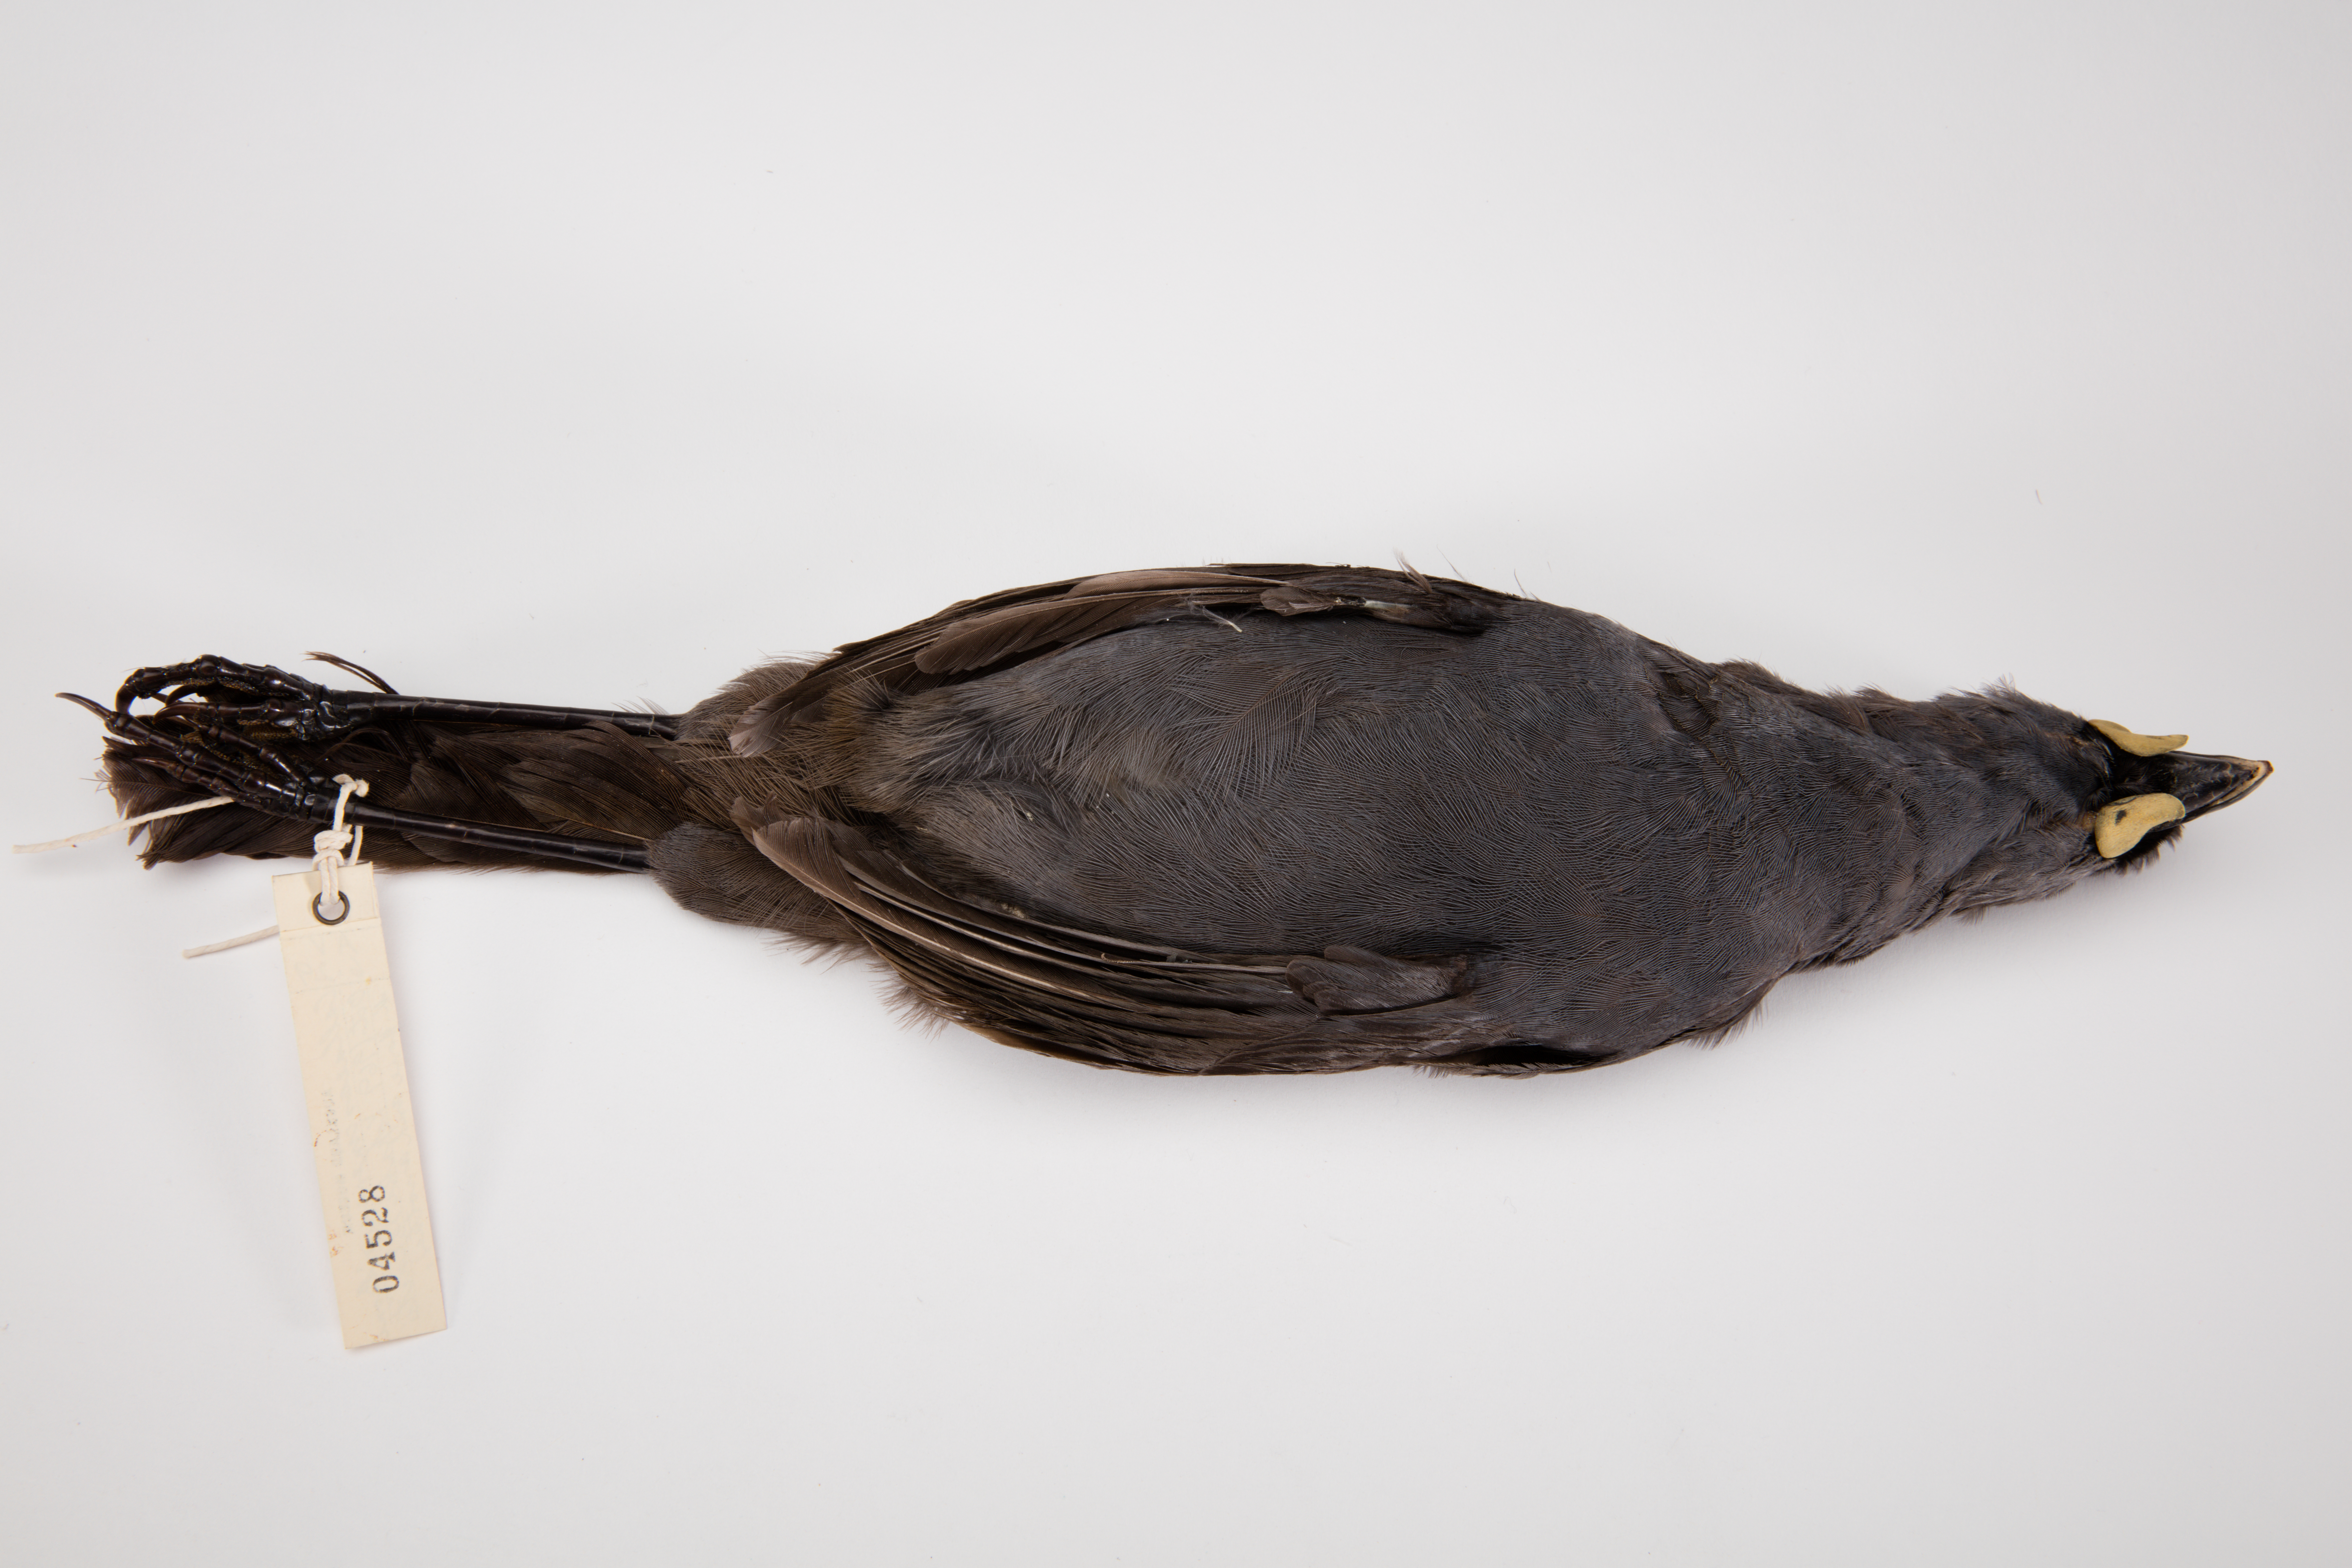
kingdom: Animalia
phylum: Chordata
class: Aves
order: Passeriformes
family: Callaeatidae
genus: Callaeas
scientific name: Callaeas cinereus
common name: South island kokako
